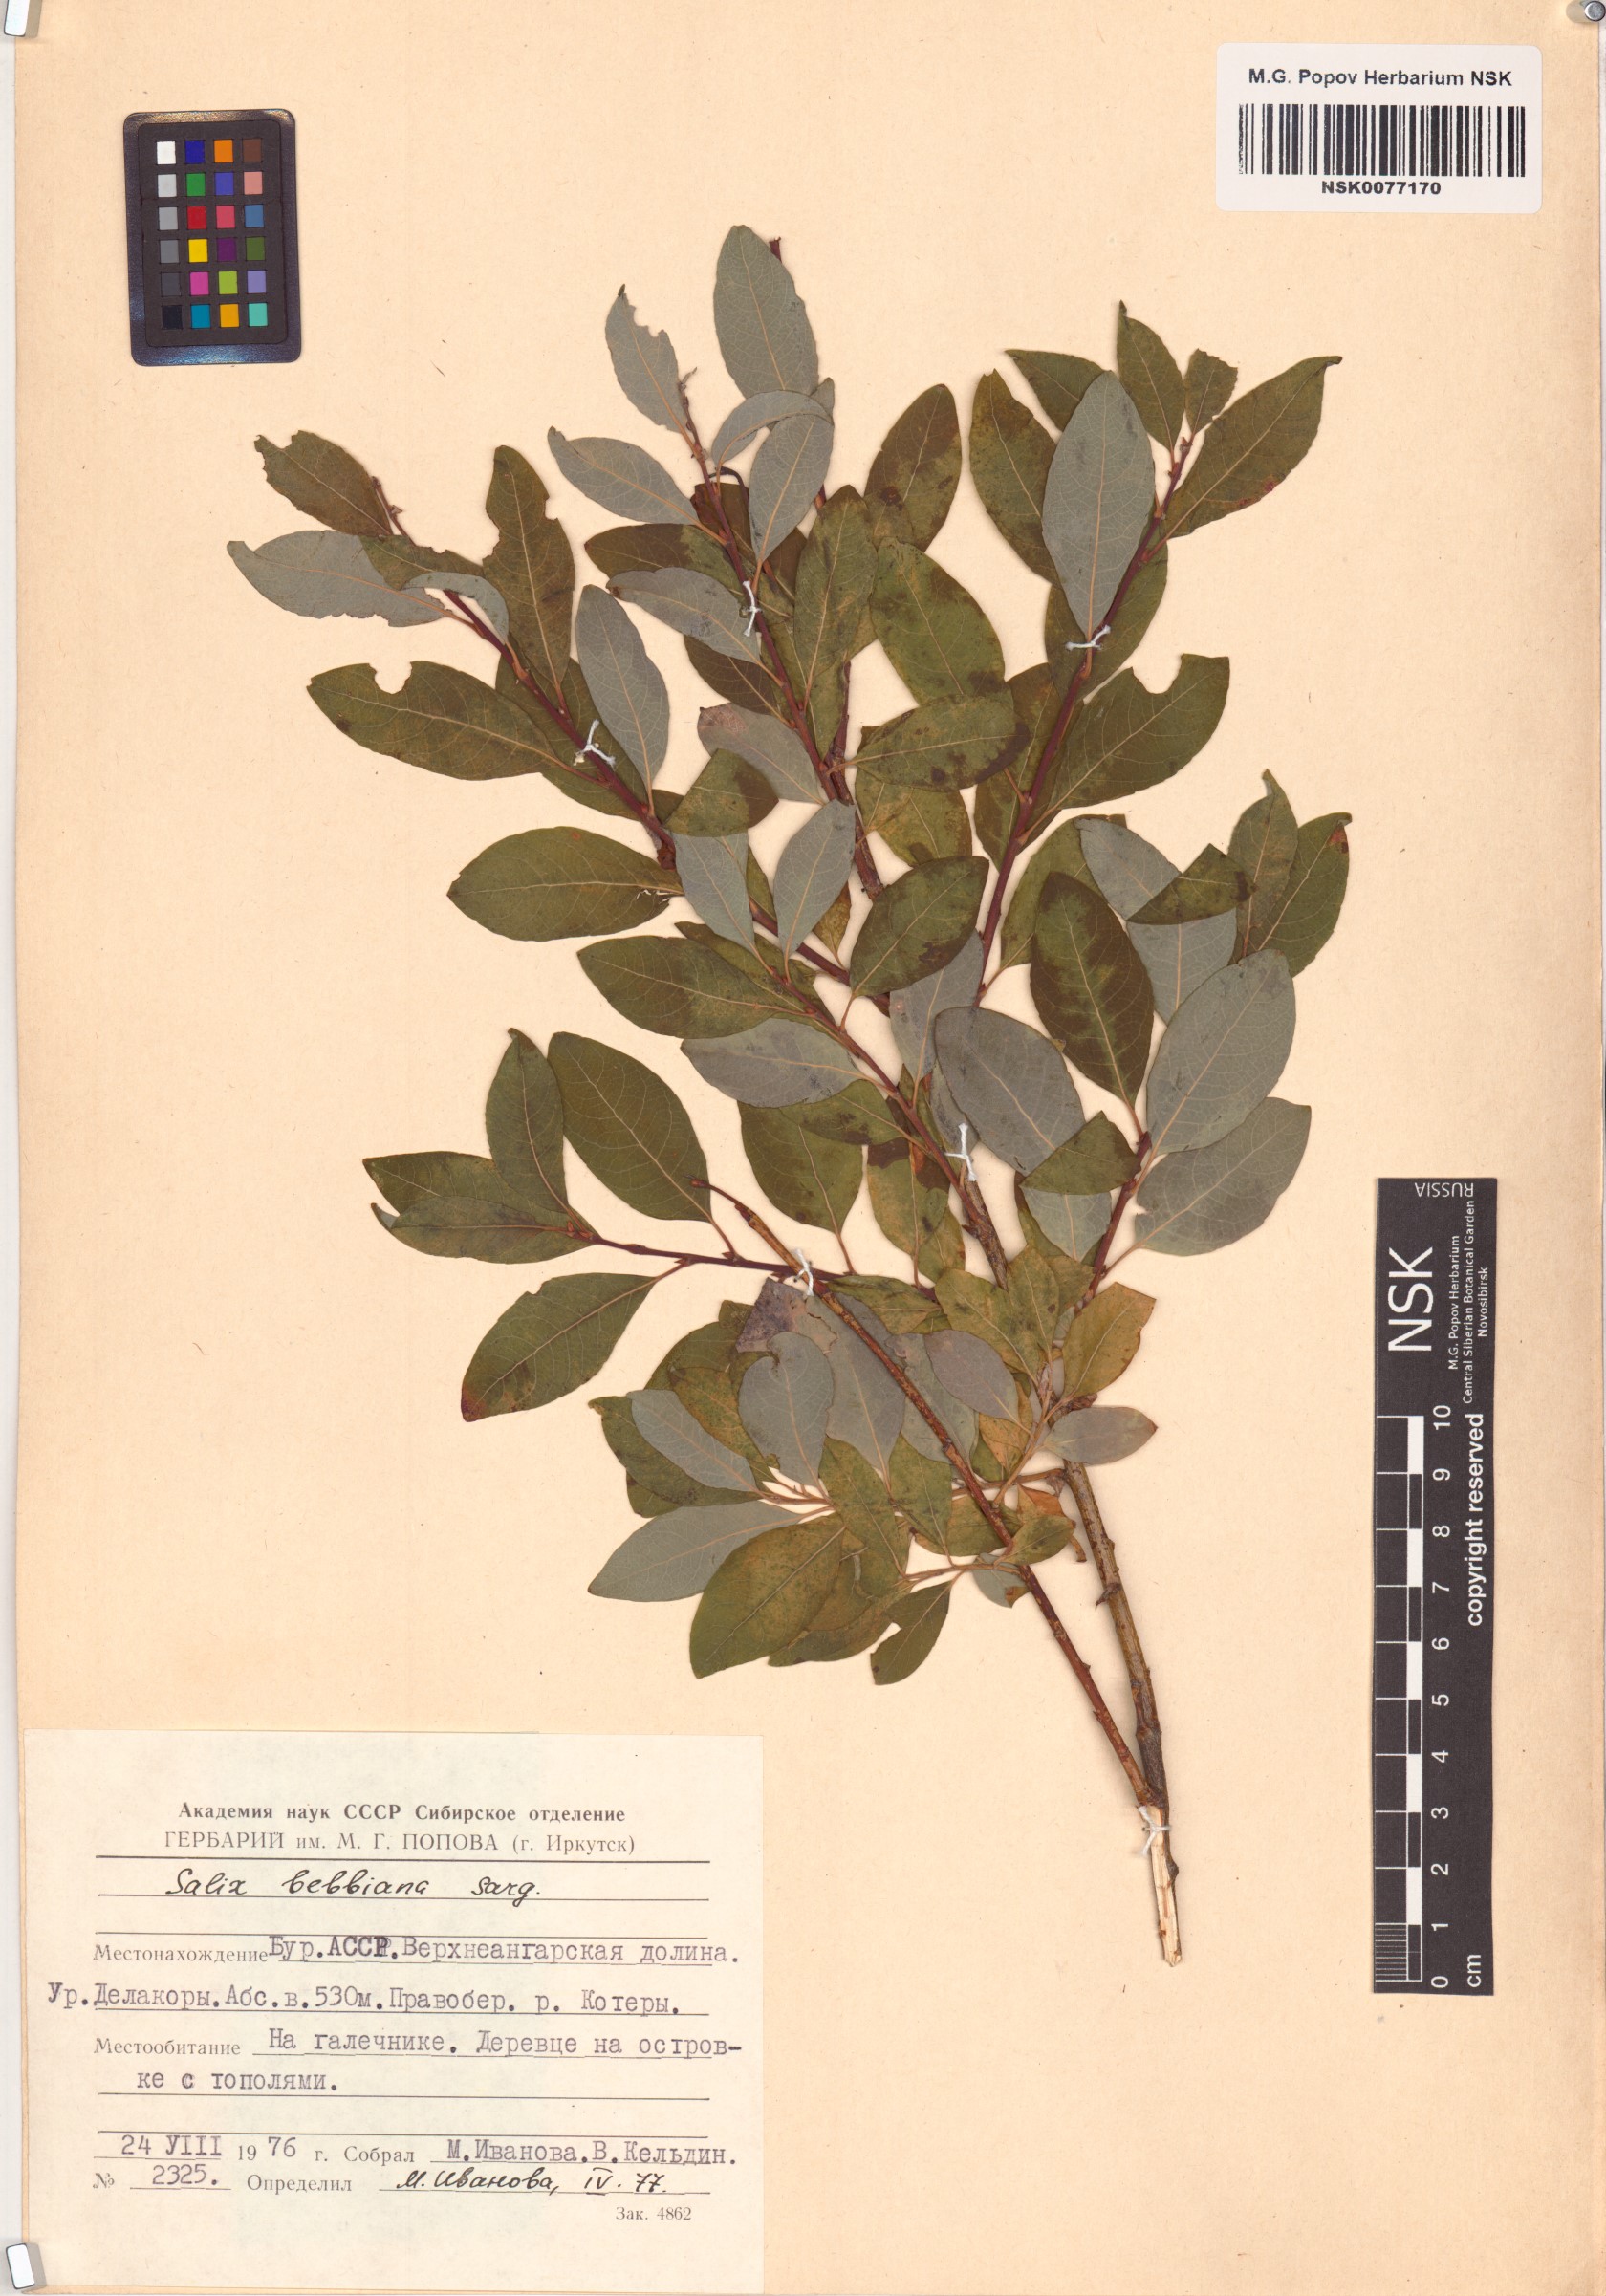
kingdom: Plantae
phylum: Tracheophyta
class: Magnoliopsida
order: Malpighiales
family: Salicaceae
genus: Salix
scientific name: Salix bebbiana
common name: Bebb's willow
